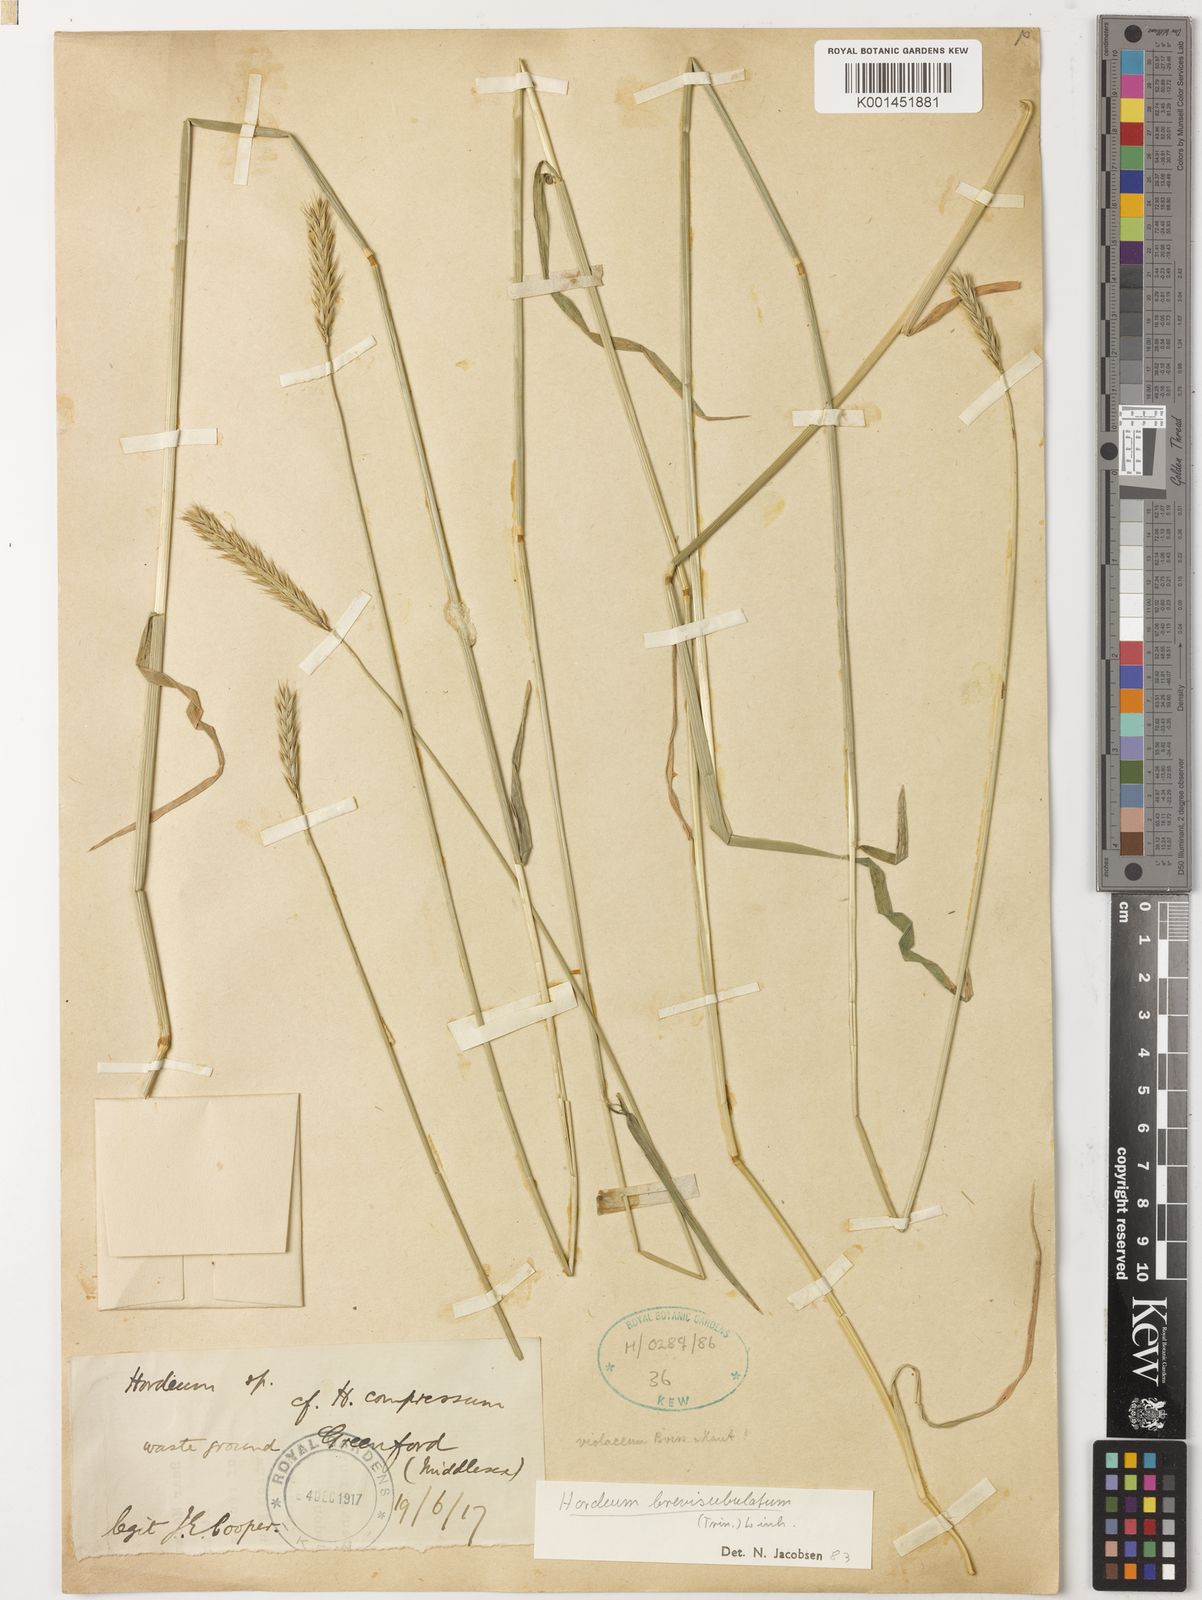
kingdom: Plantae
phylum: Tracheophyta
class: Liliopsida
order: Poales
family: Poaceae
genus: Hordeum
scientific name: Hordeum brevisubulatum
